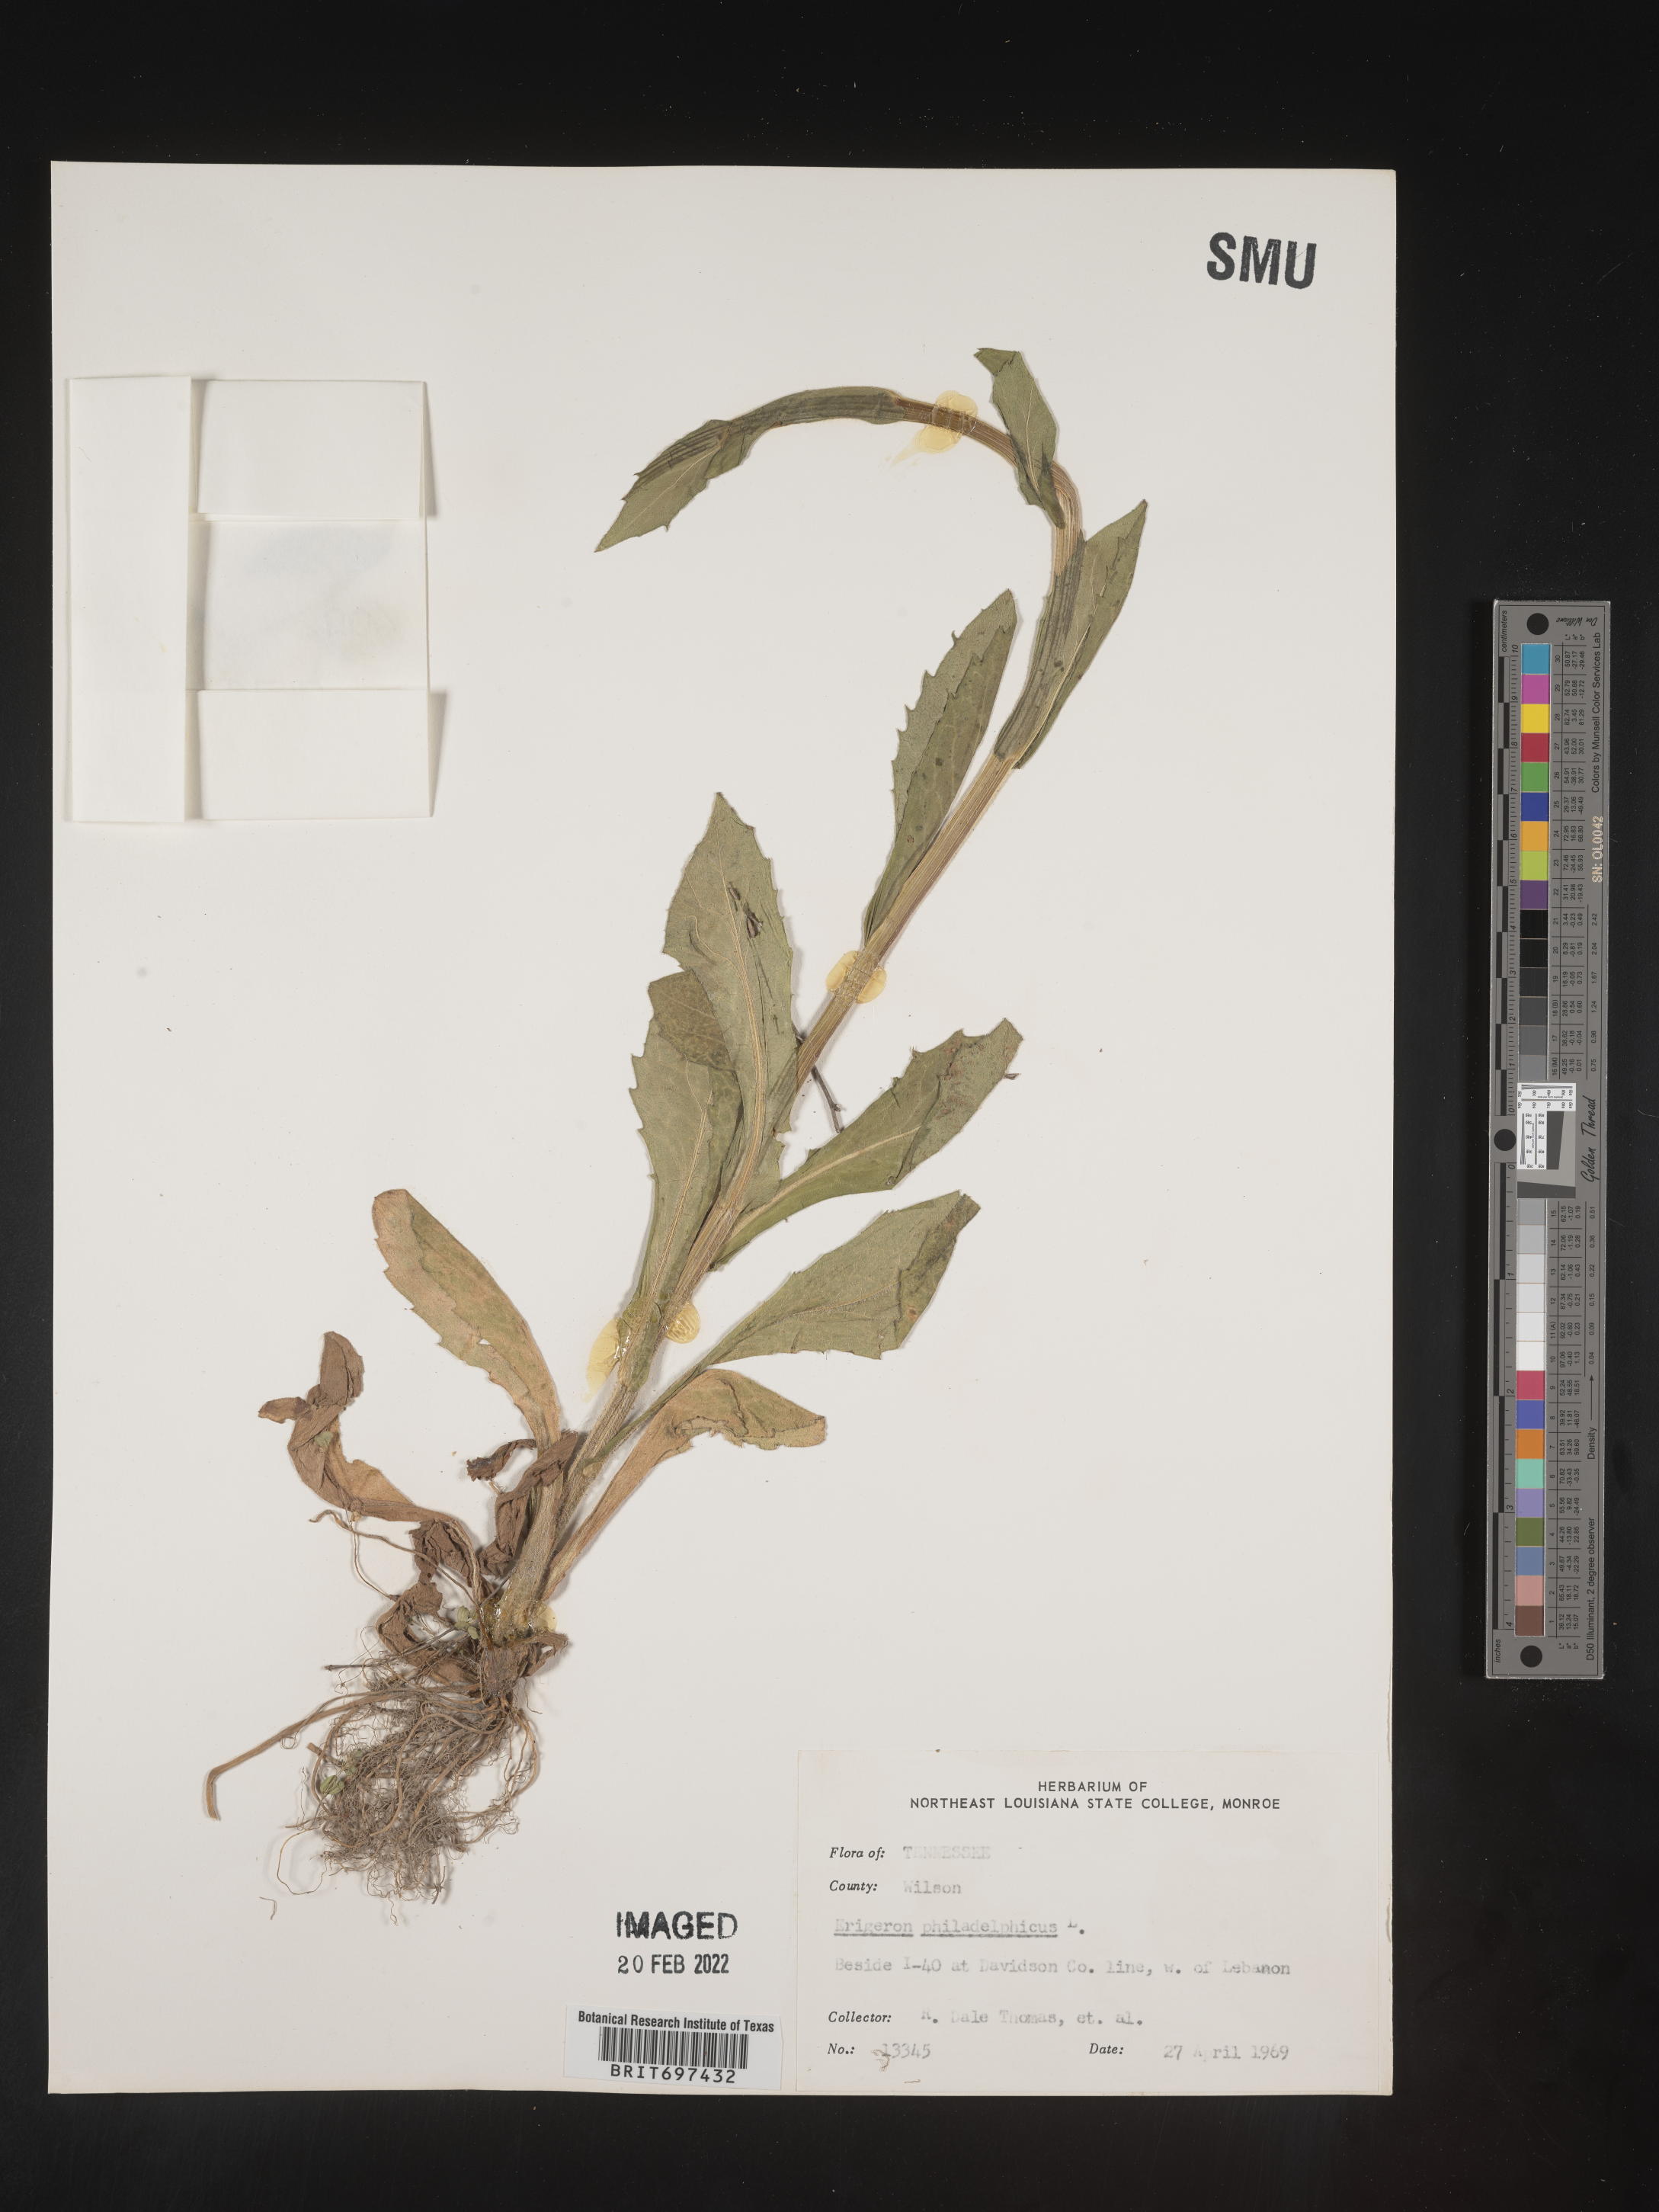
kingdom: Plantae
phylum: Tracheophyta
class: Magnoliopsida
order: Asterales
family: Asteraceae
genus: Erigeron
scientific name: Erigeron philadelphicus
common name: Robin's-plantain
